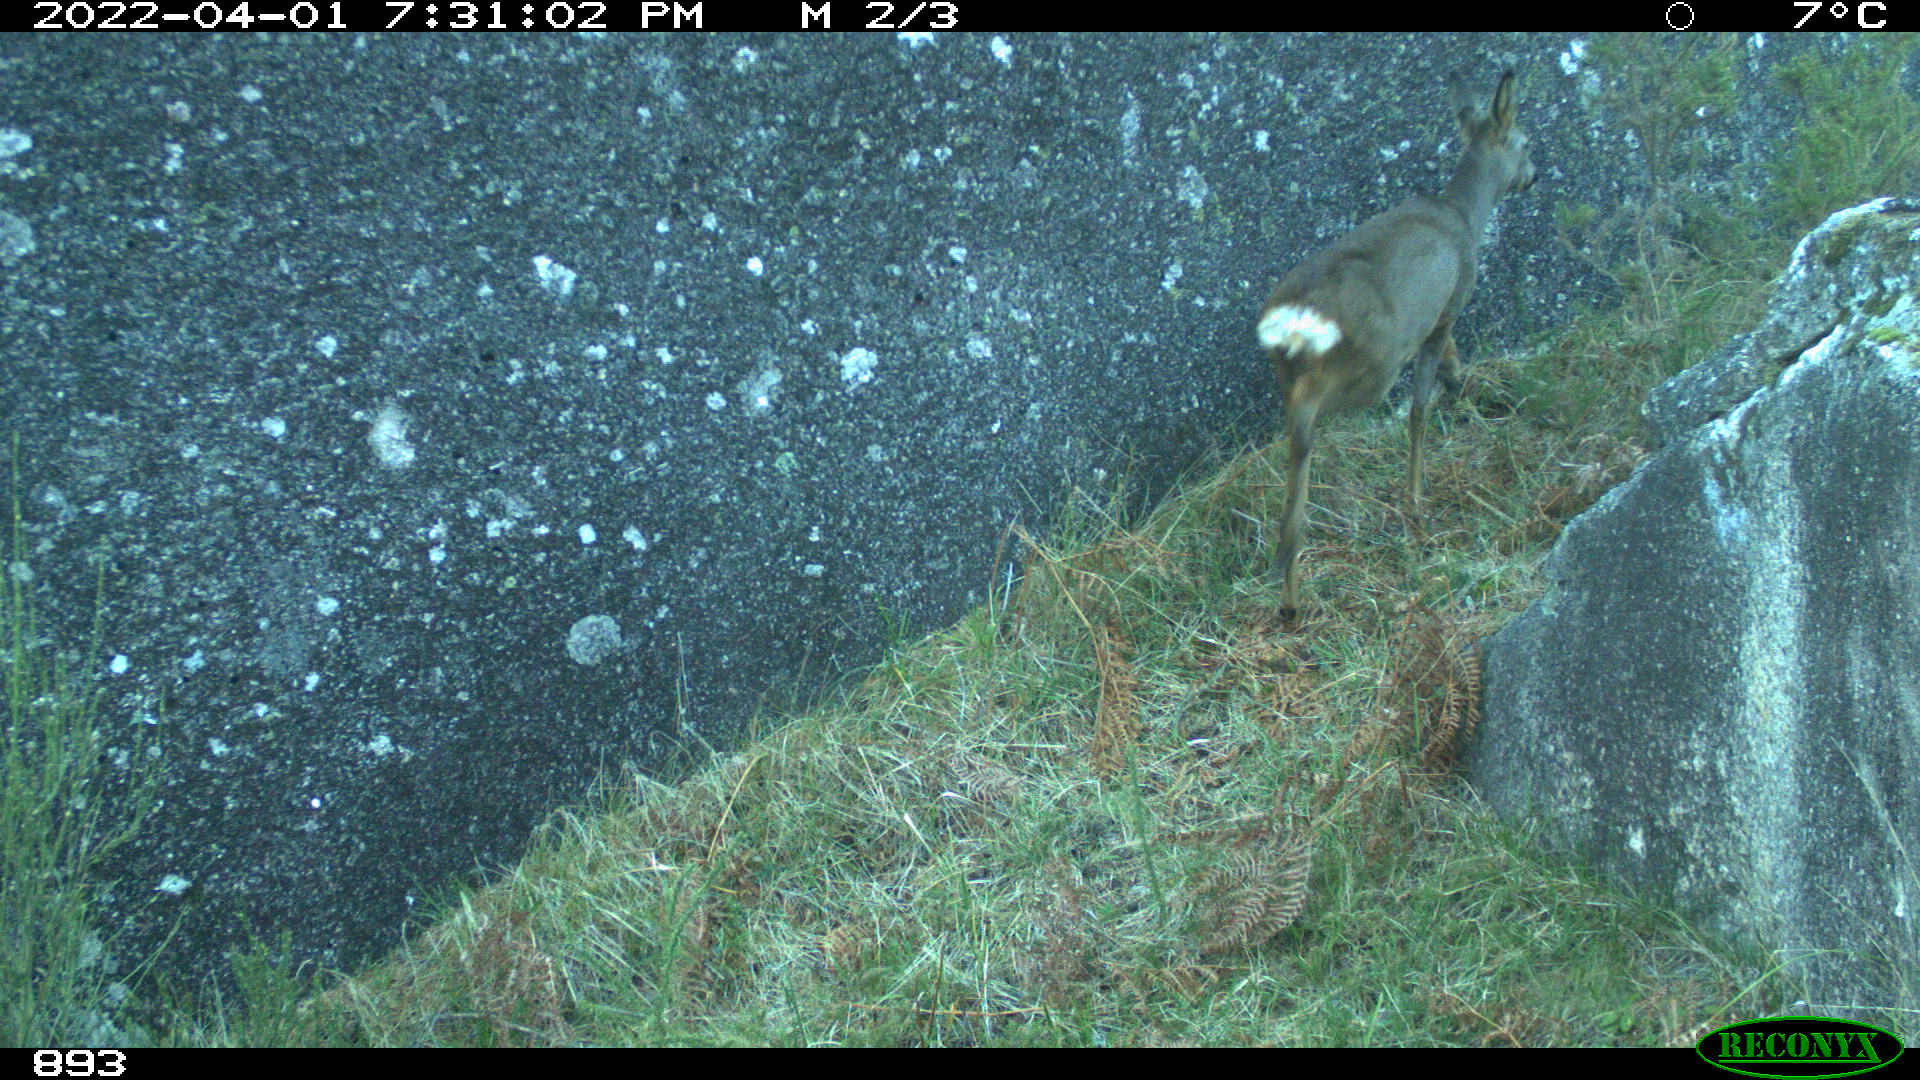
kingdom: Animalia
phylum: Chordata
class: Mammalia
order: Artiodactyla
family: Cervidae
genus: Capreolus
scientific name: Capreolus capreolus
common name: Western roe deer
